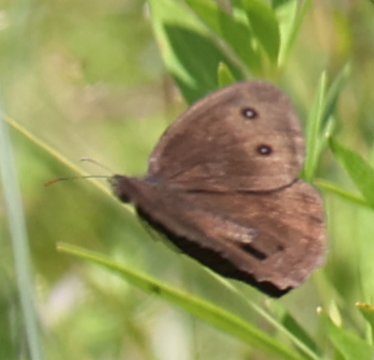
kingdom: Animalia
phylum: Arthropoda
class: Insecta
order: Lepidoptera
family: Nymphalidae
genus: Cercyonis
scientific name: Cercyonis pegala
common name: Common Wood-Nymph
